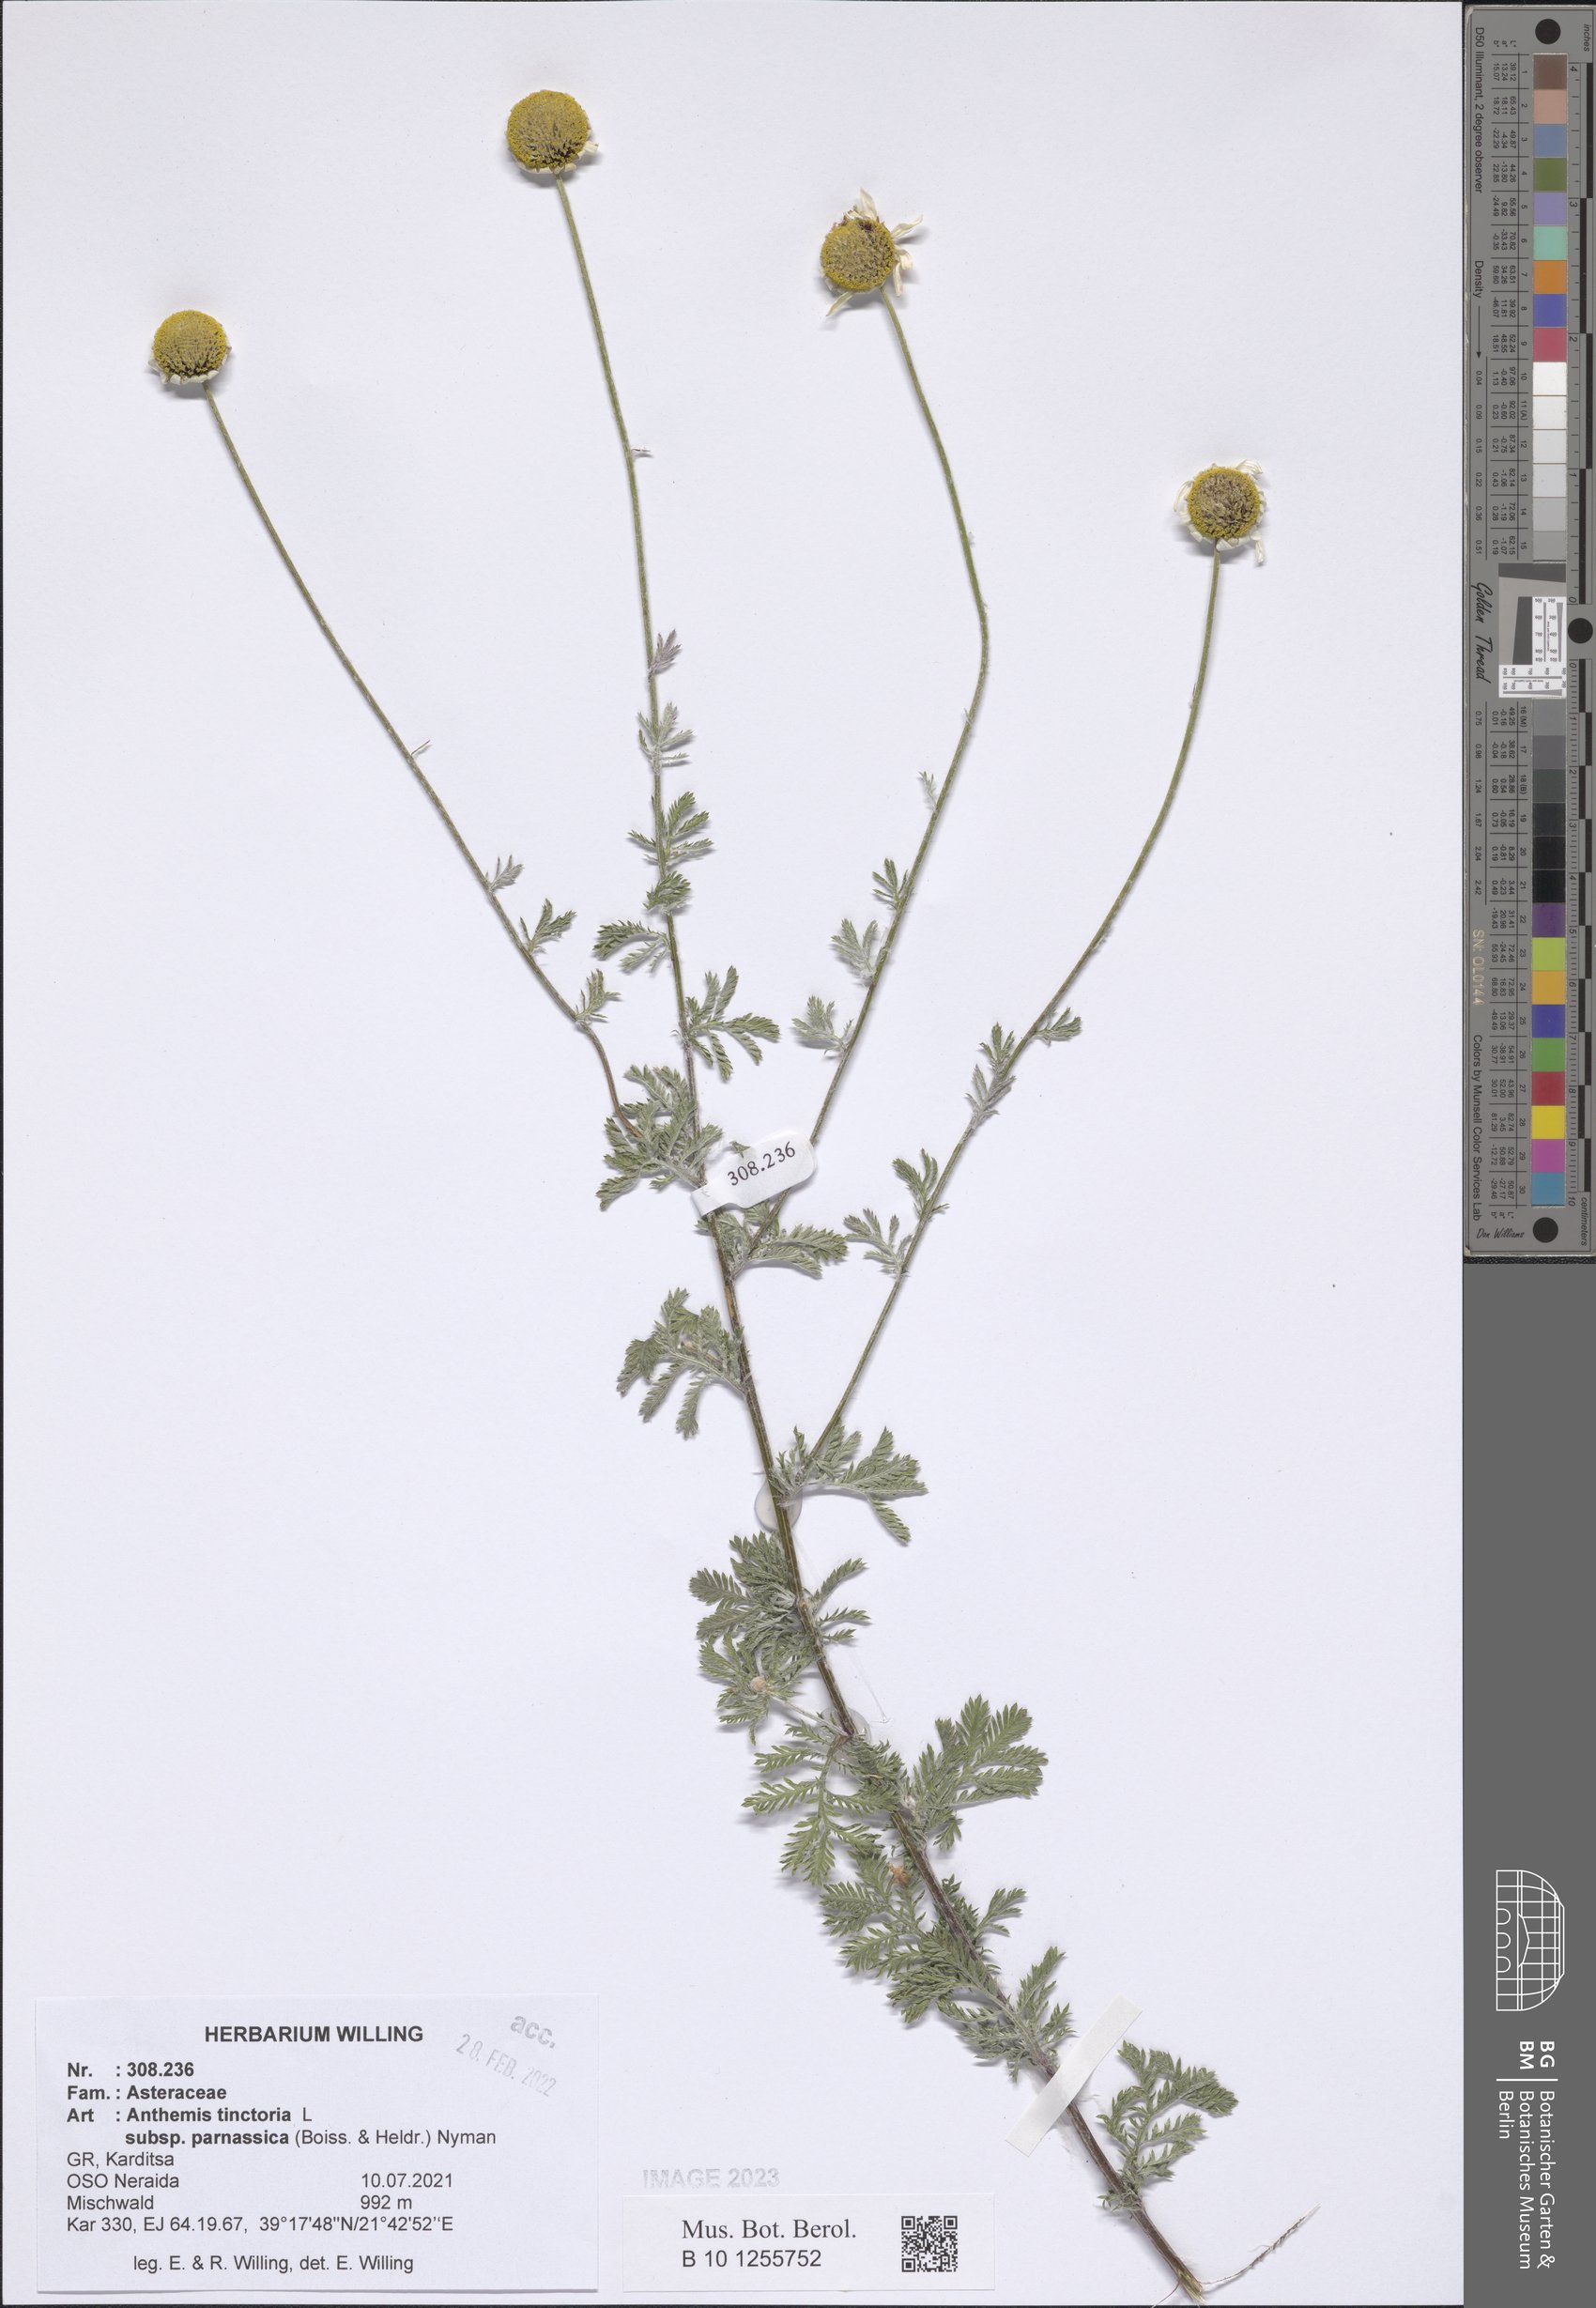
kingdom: Plantae
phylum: Tracheophyta
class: Magnoliopsida
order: Asterales
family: Asteraceae
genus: Cota
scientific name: Cota tinctoria
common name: Golden chamomile
